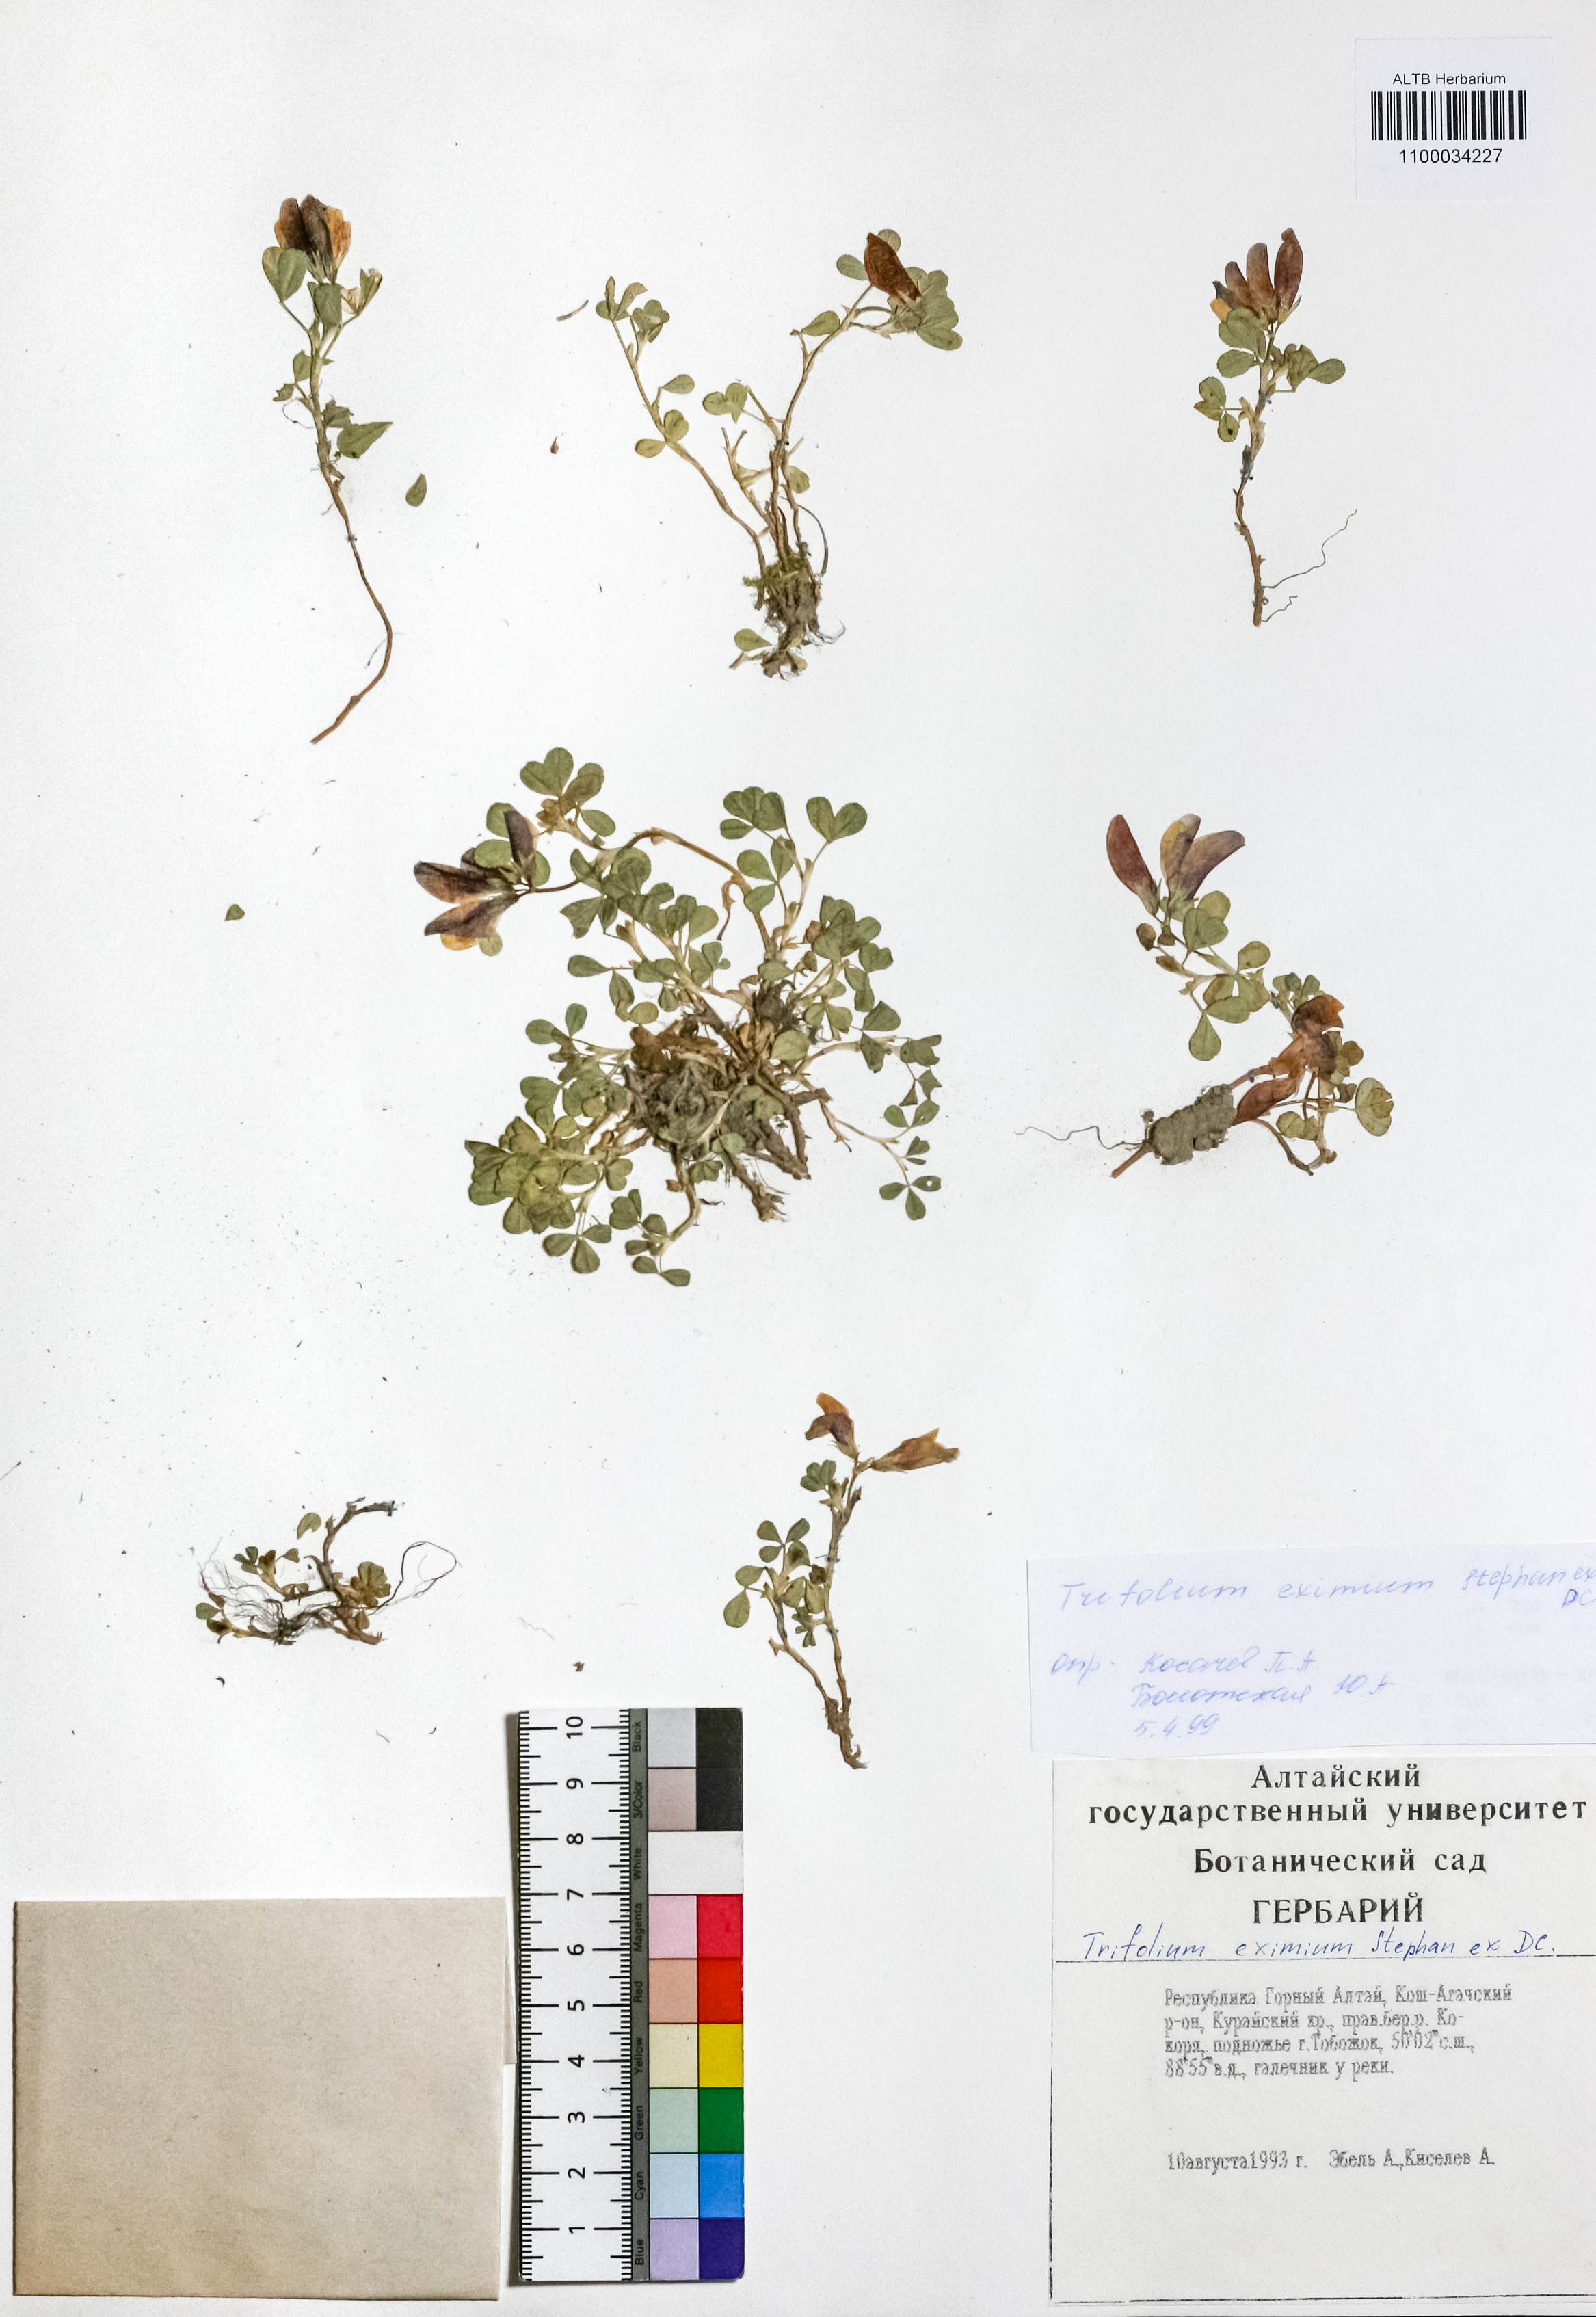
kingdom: Plantae
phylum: Tracheophyta
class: Magnoliopsida
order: Fabales
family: Fabaceae
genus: Trifolium
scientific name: Trifolium eximium
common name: Excellent clover
